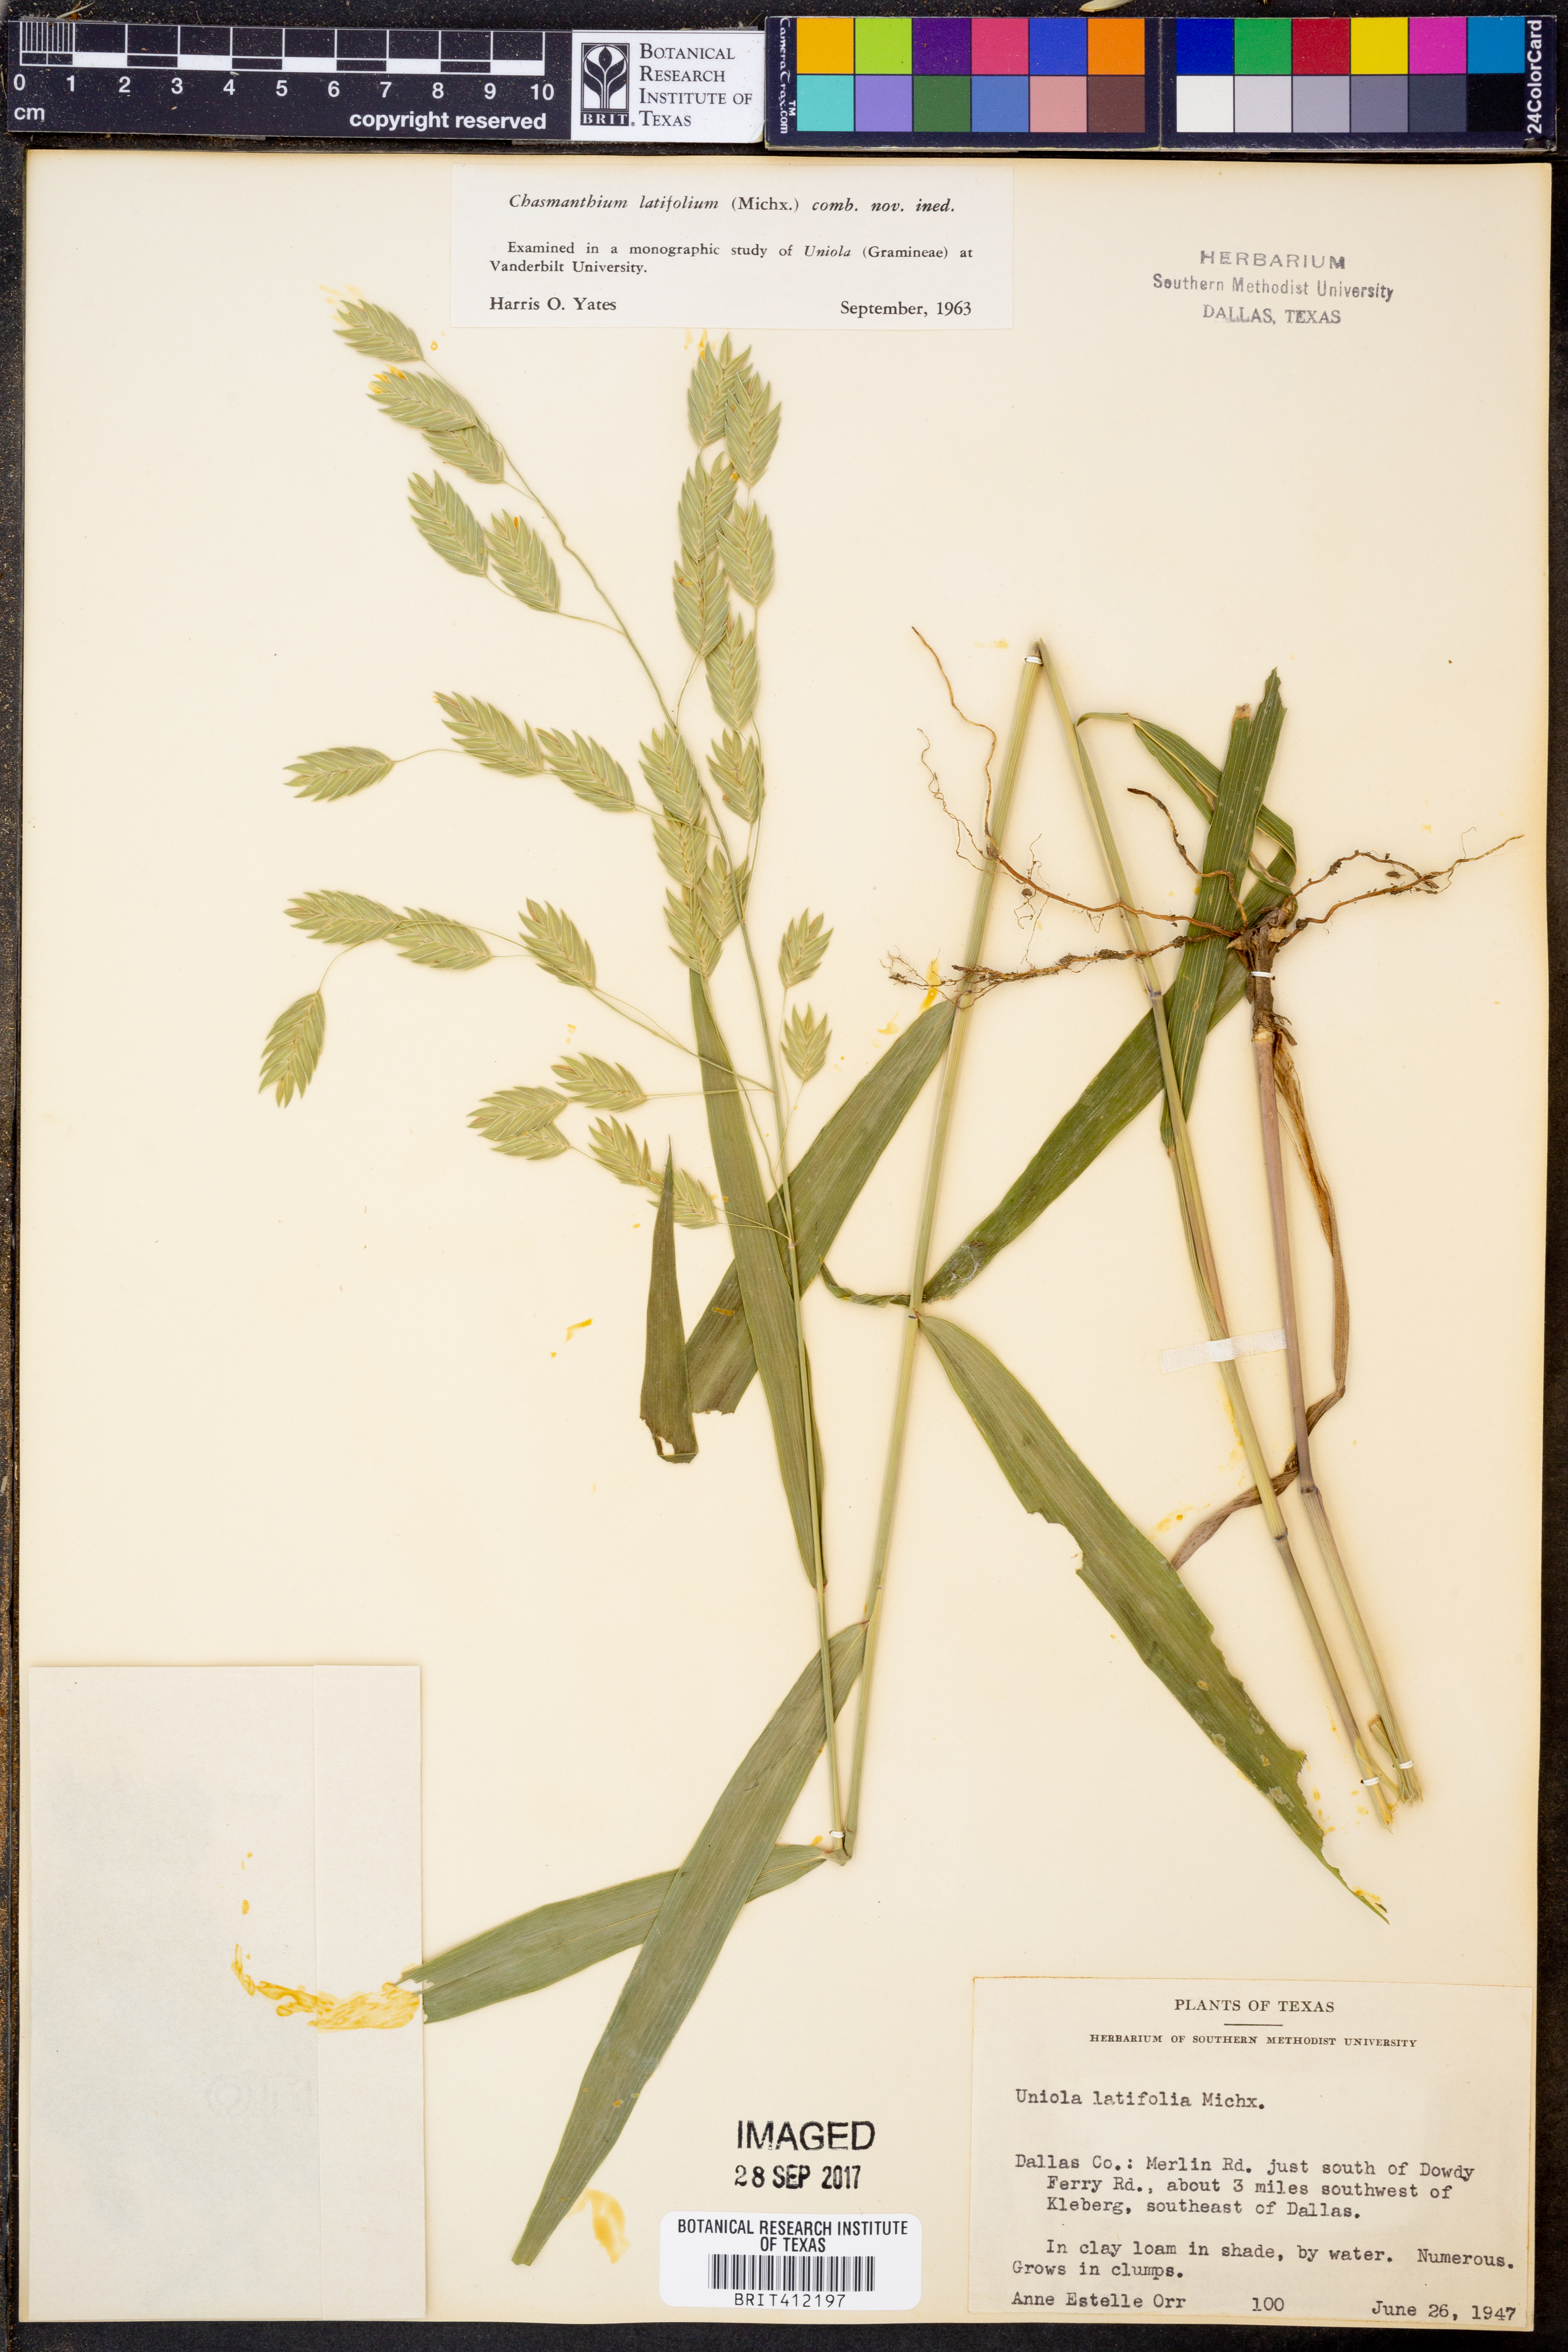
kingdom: Plantae
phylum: Tracheophyta
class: Liliopsida
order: Poales
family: Poaceae
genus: Chasmanthium
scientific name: Chasmanthium latifolium
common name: Broad-leaved chasmanthium
